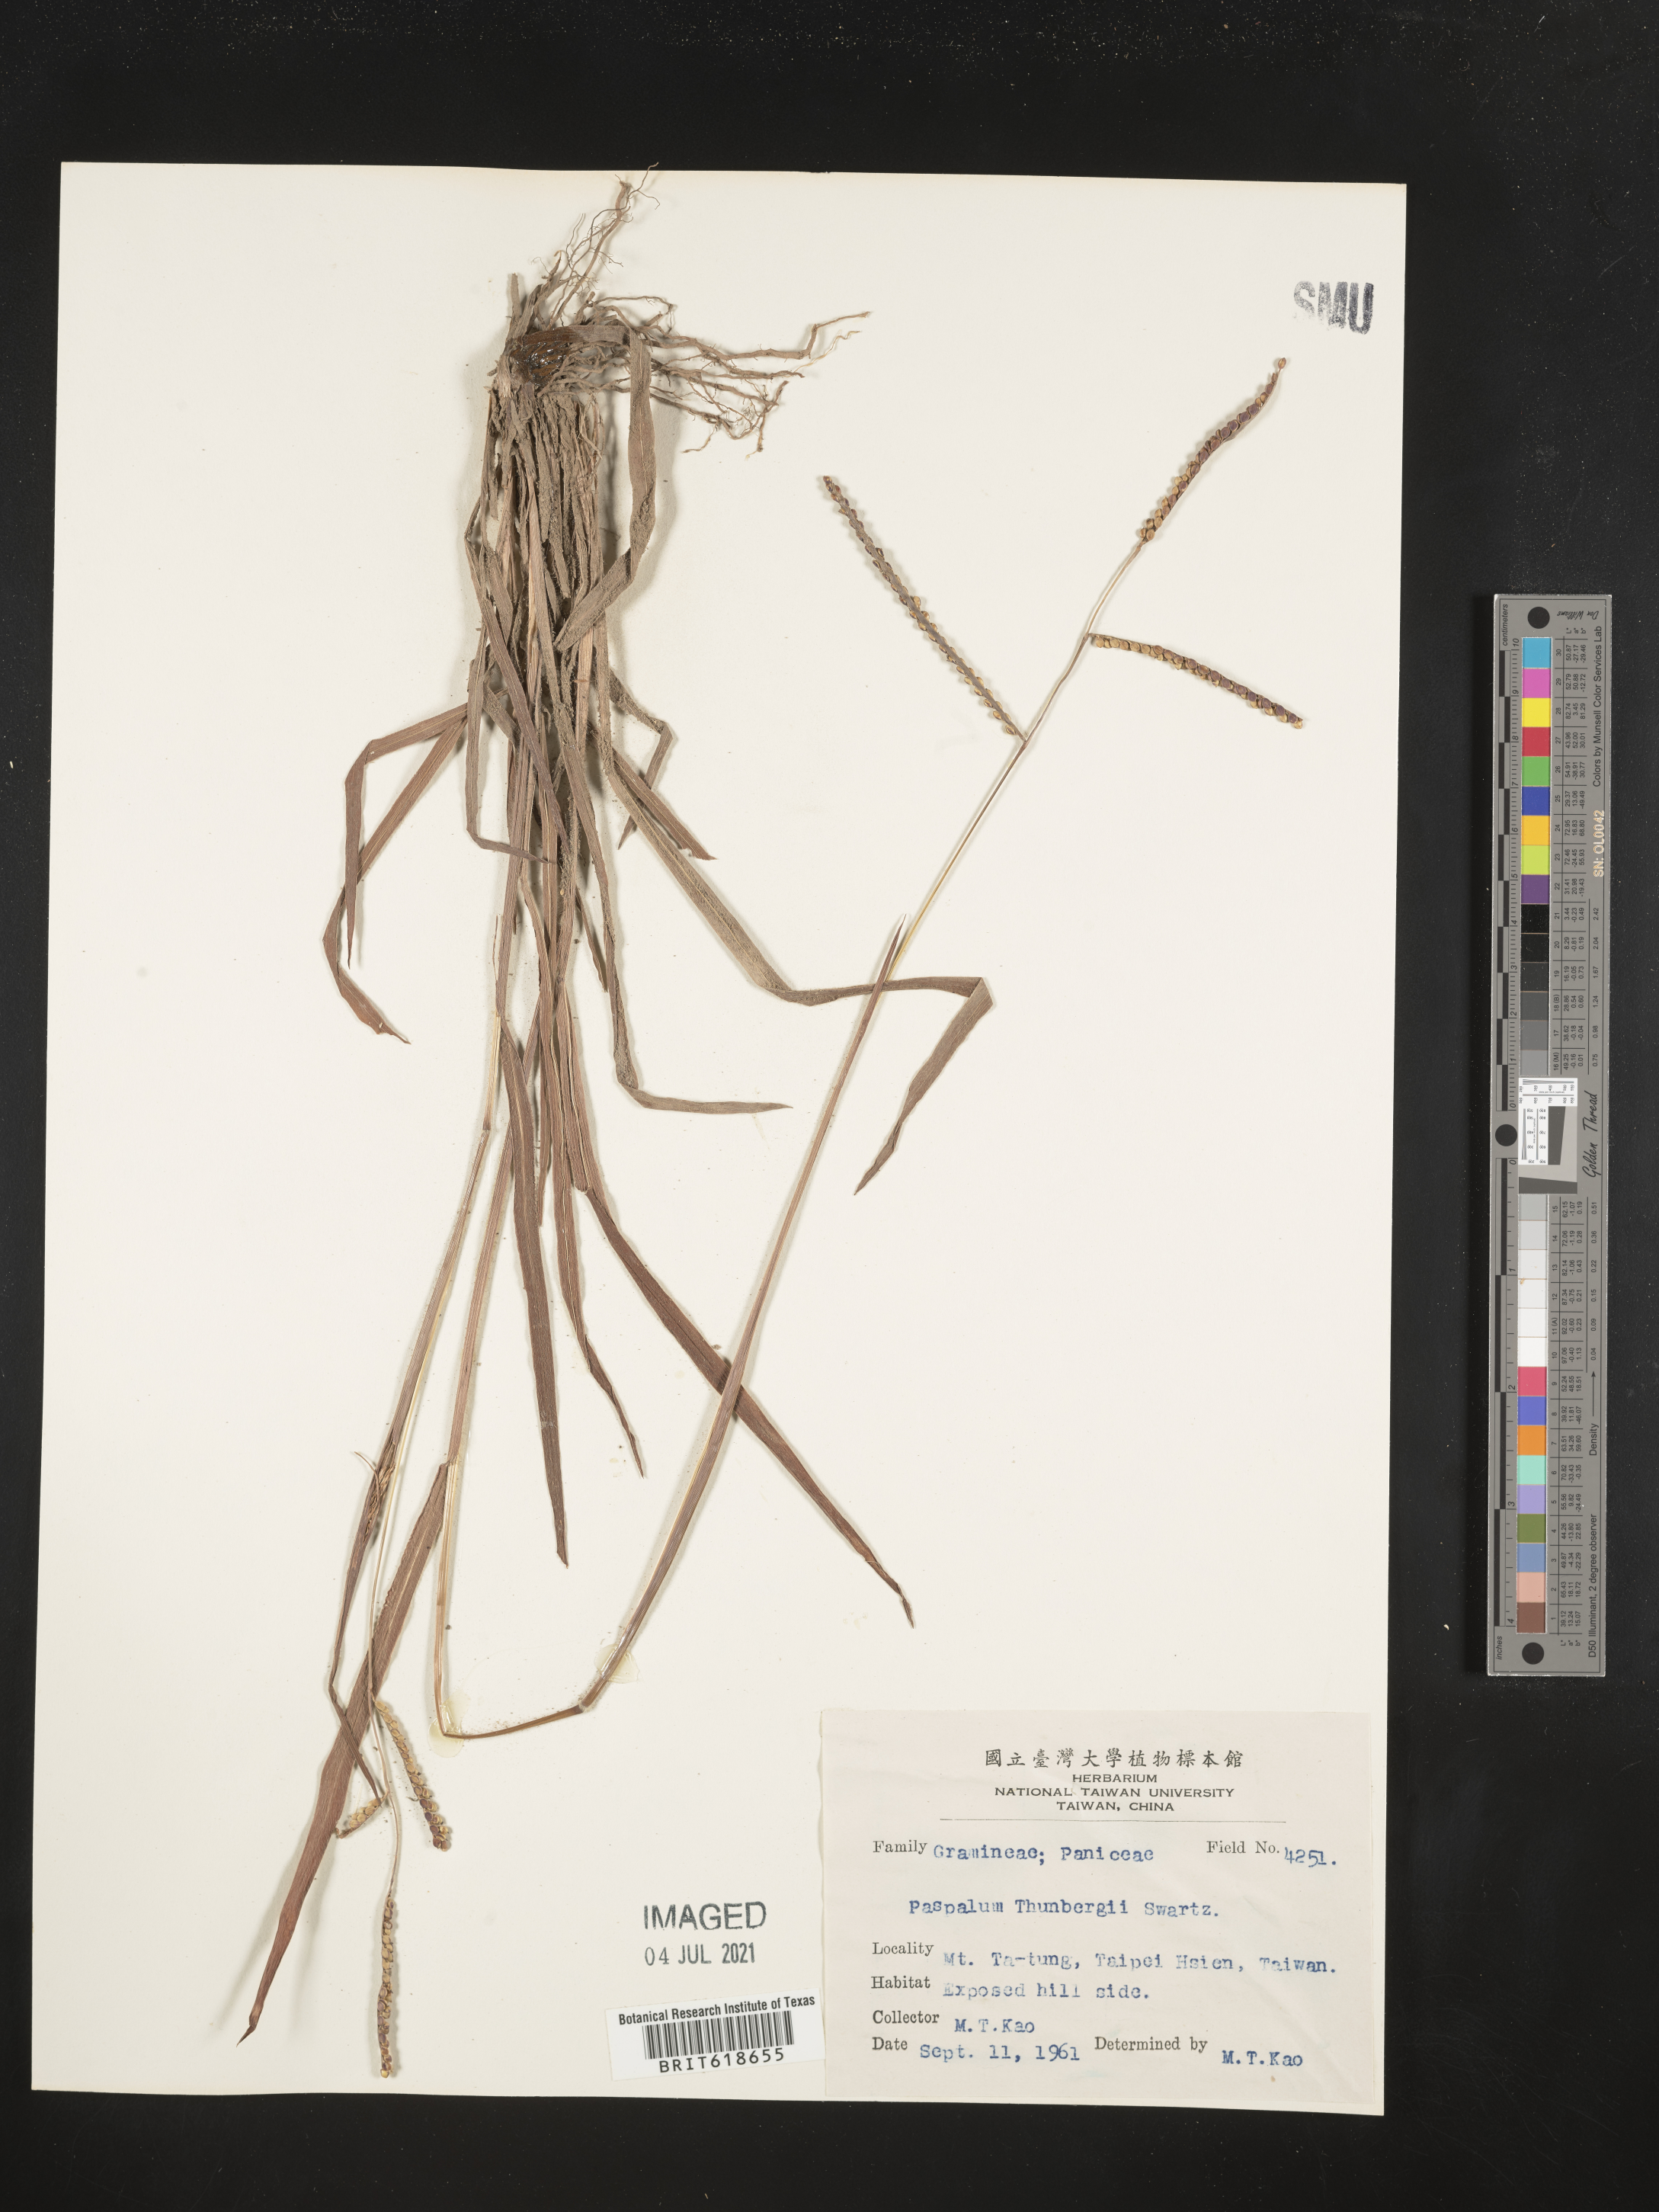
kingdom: Plantae
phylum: Tracheophyta
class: Liliopsida
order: Poales
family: Poaceae
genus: Paspalum
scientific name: Paspalum
